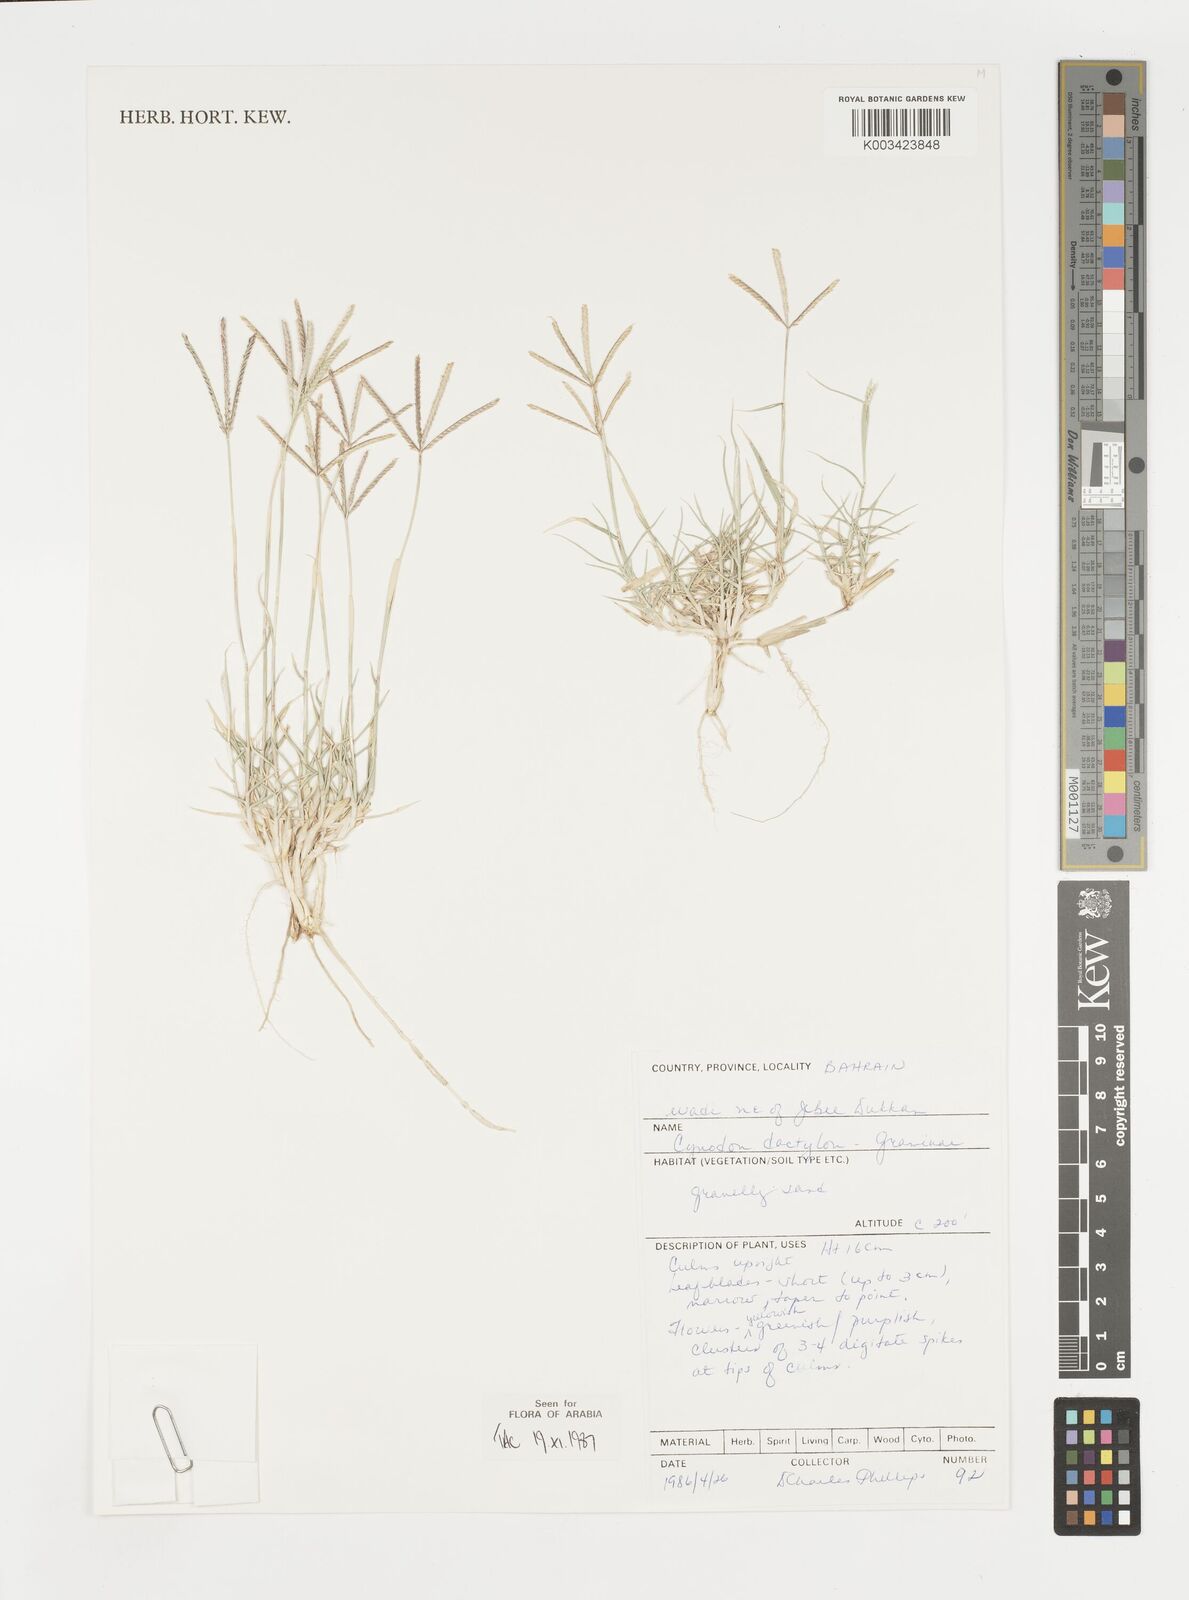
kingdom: Plantae
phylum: Tracheophyta
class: Liliopsida
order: Poales
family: Poaceae
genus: Cynodon
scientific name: Cynodon dactylon
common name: Bermuda grass
